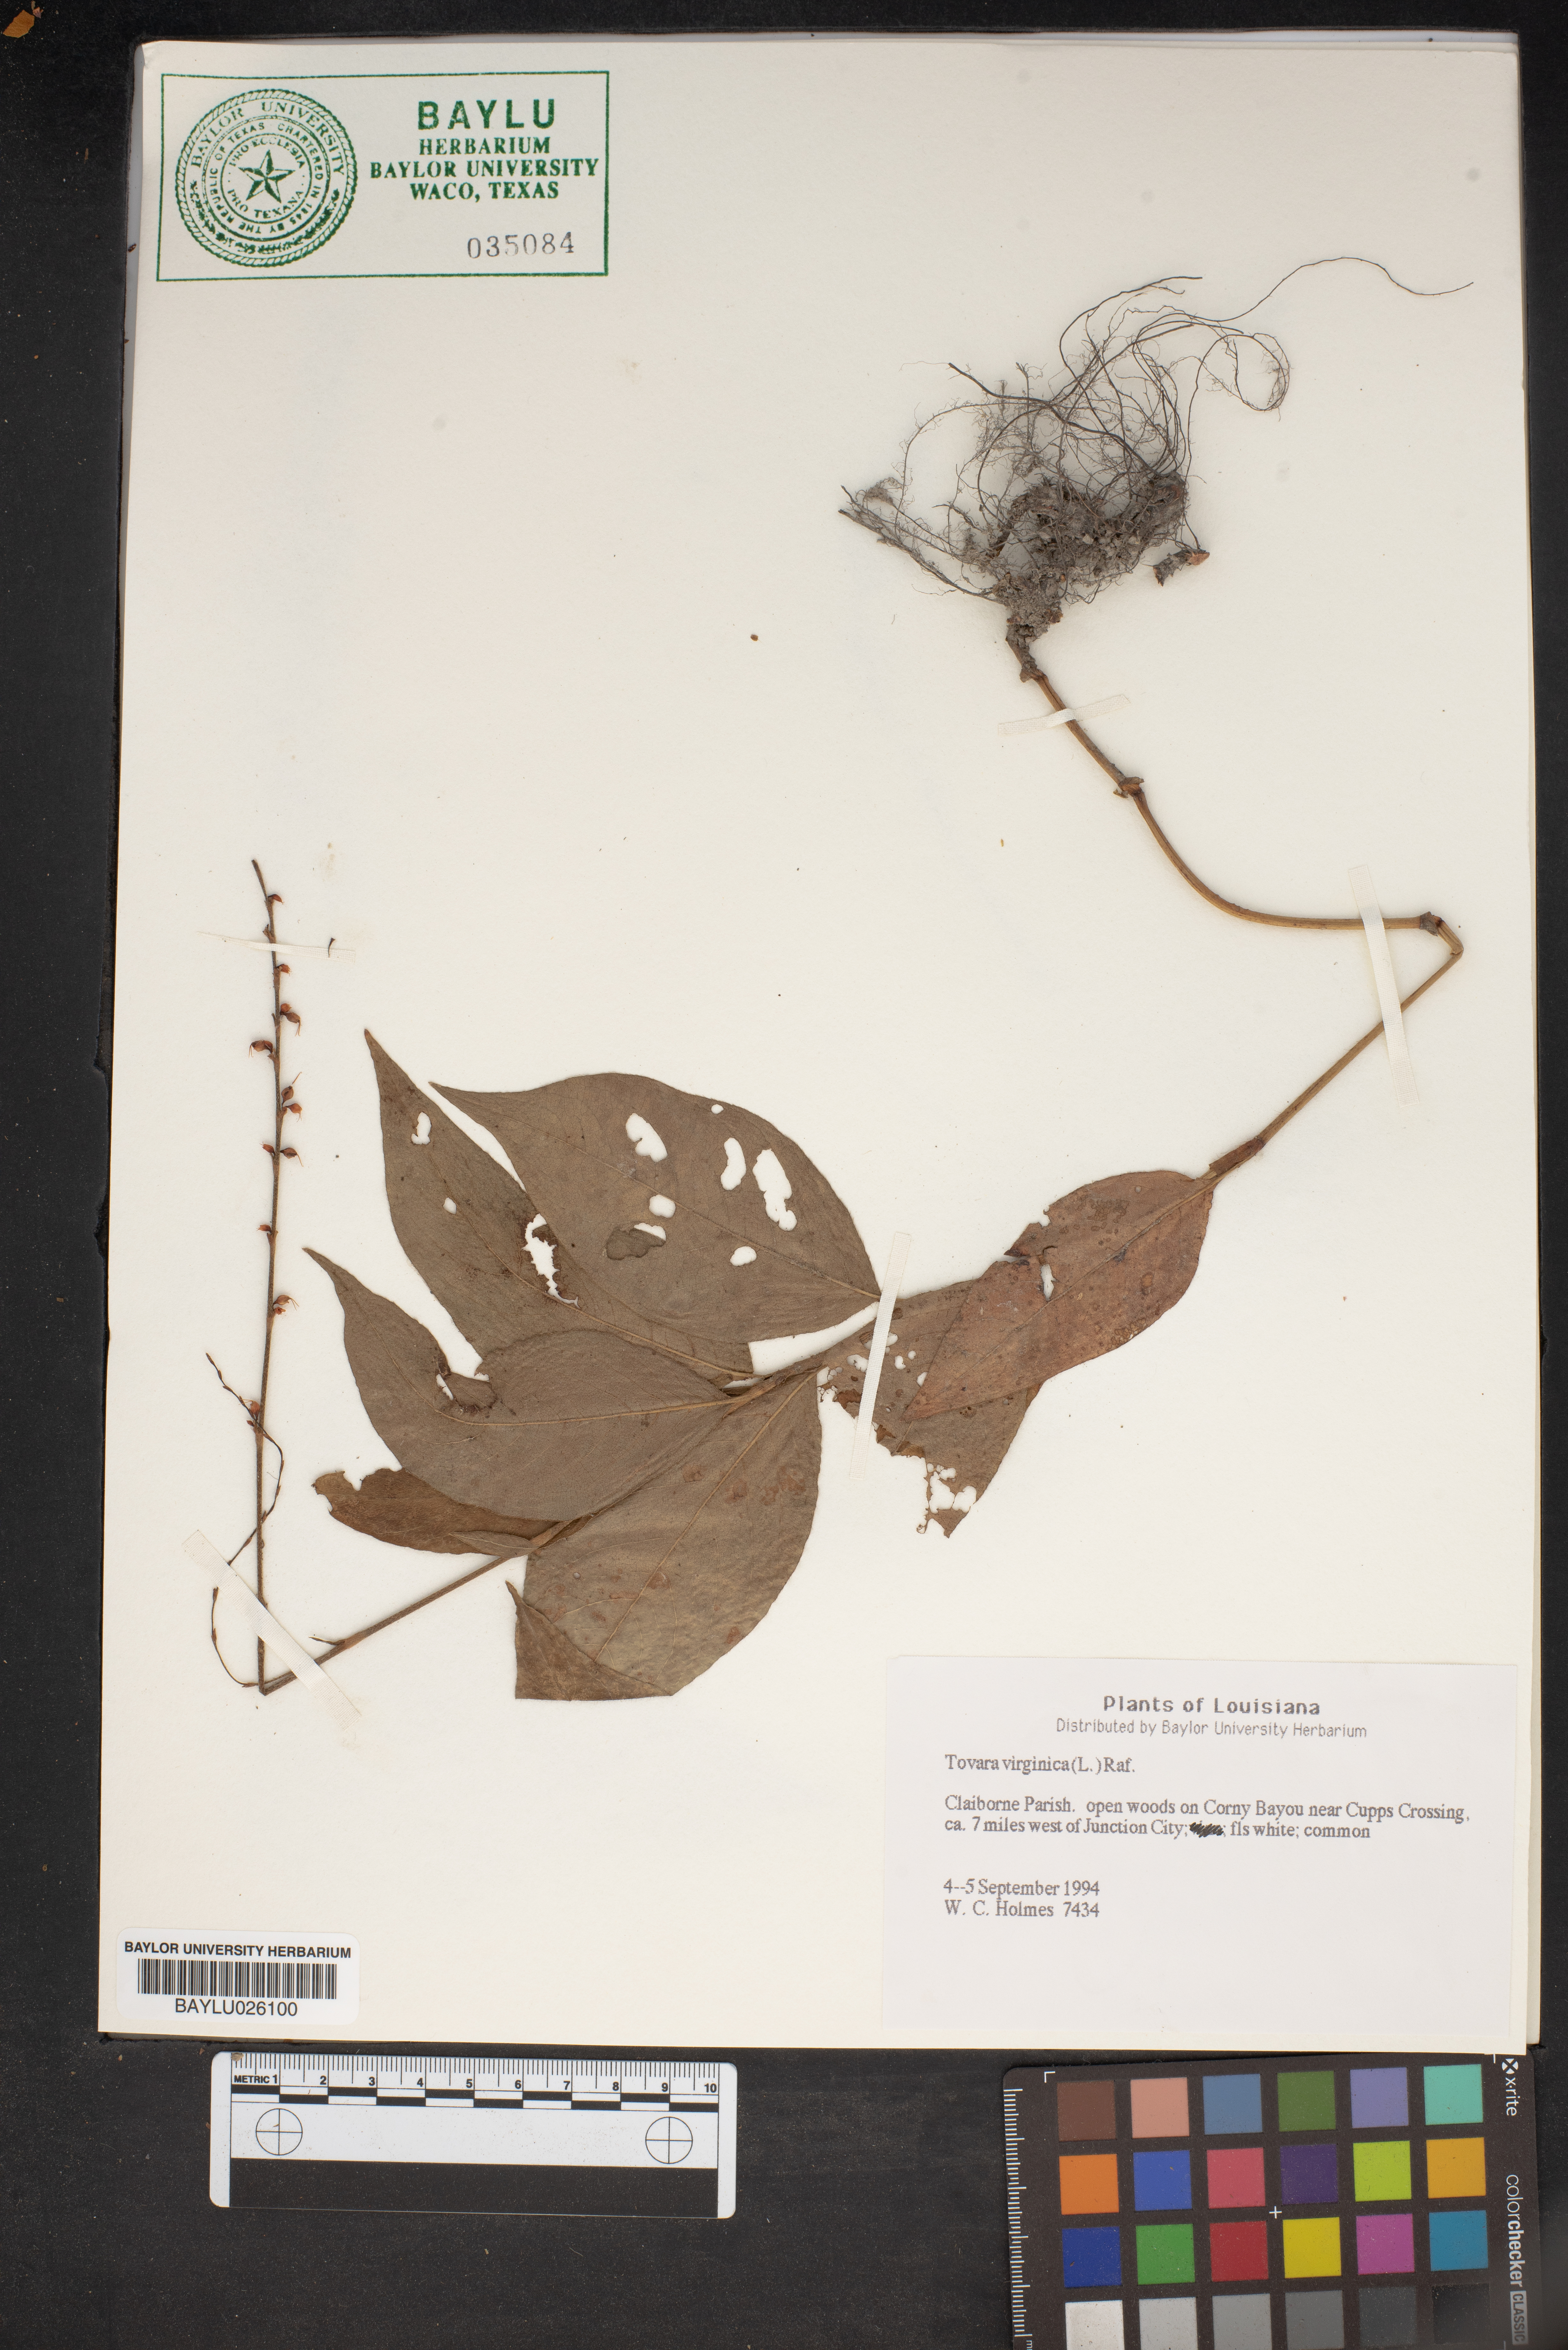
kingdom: Plantae
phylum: Tracheophyta
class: Magnoliopsida
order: Caryophyllales
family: Polygonaceae
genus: Persicaria
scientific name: Persicaria virginiana
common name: Jumpseed
